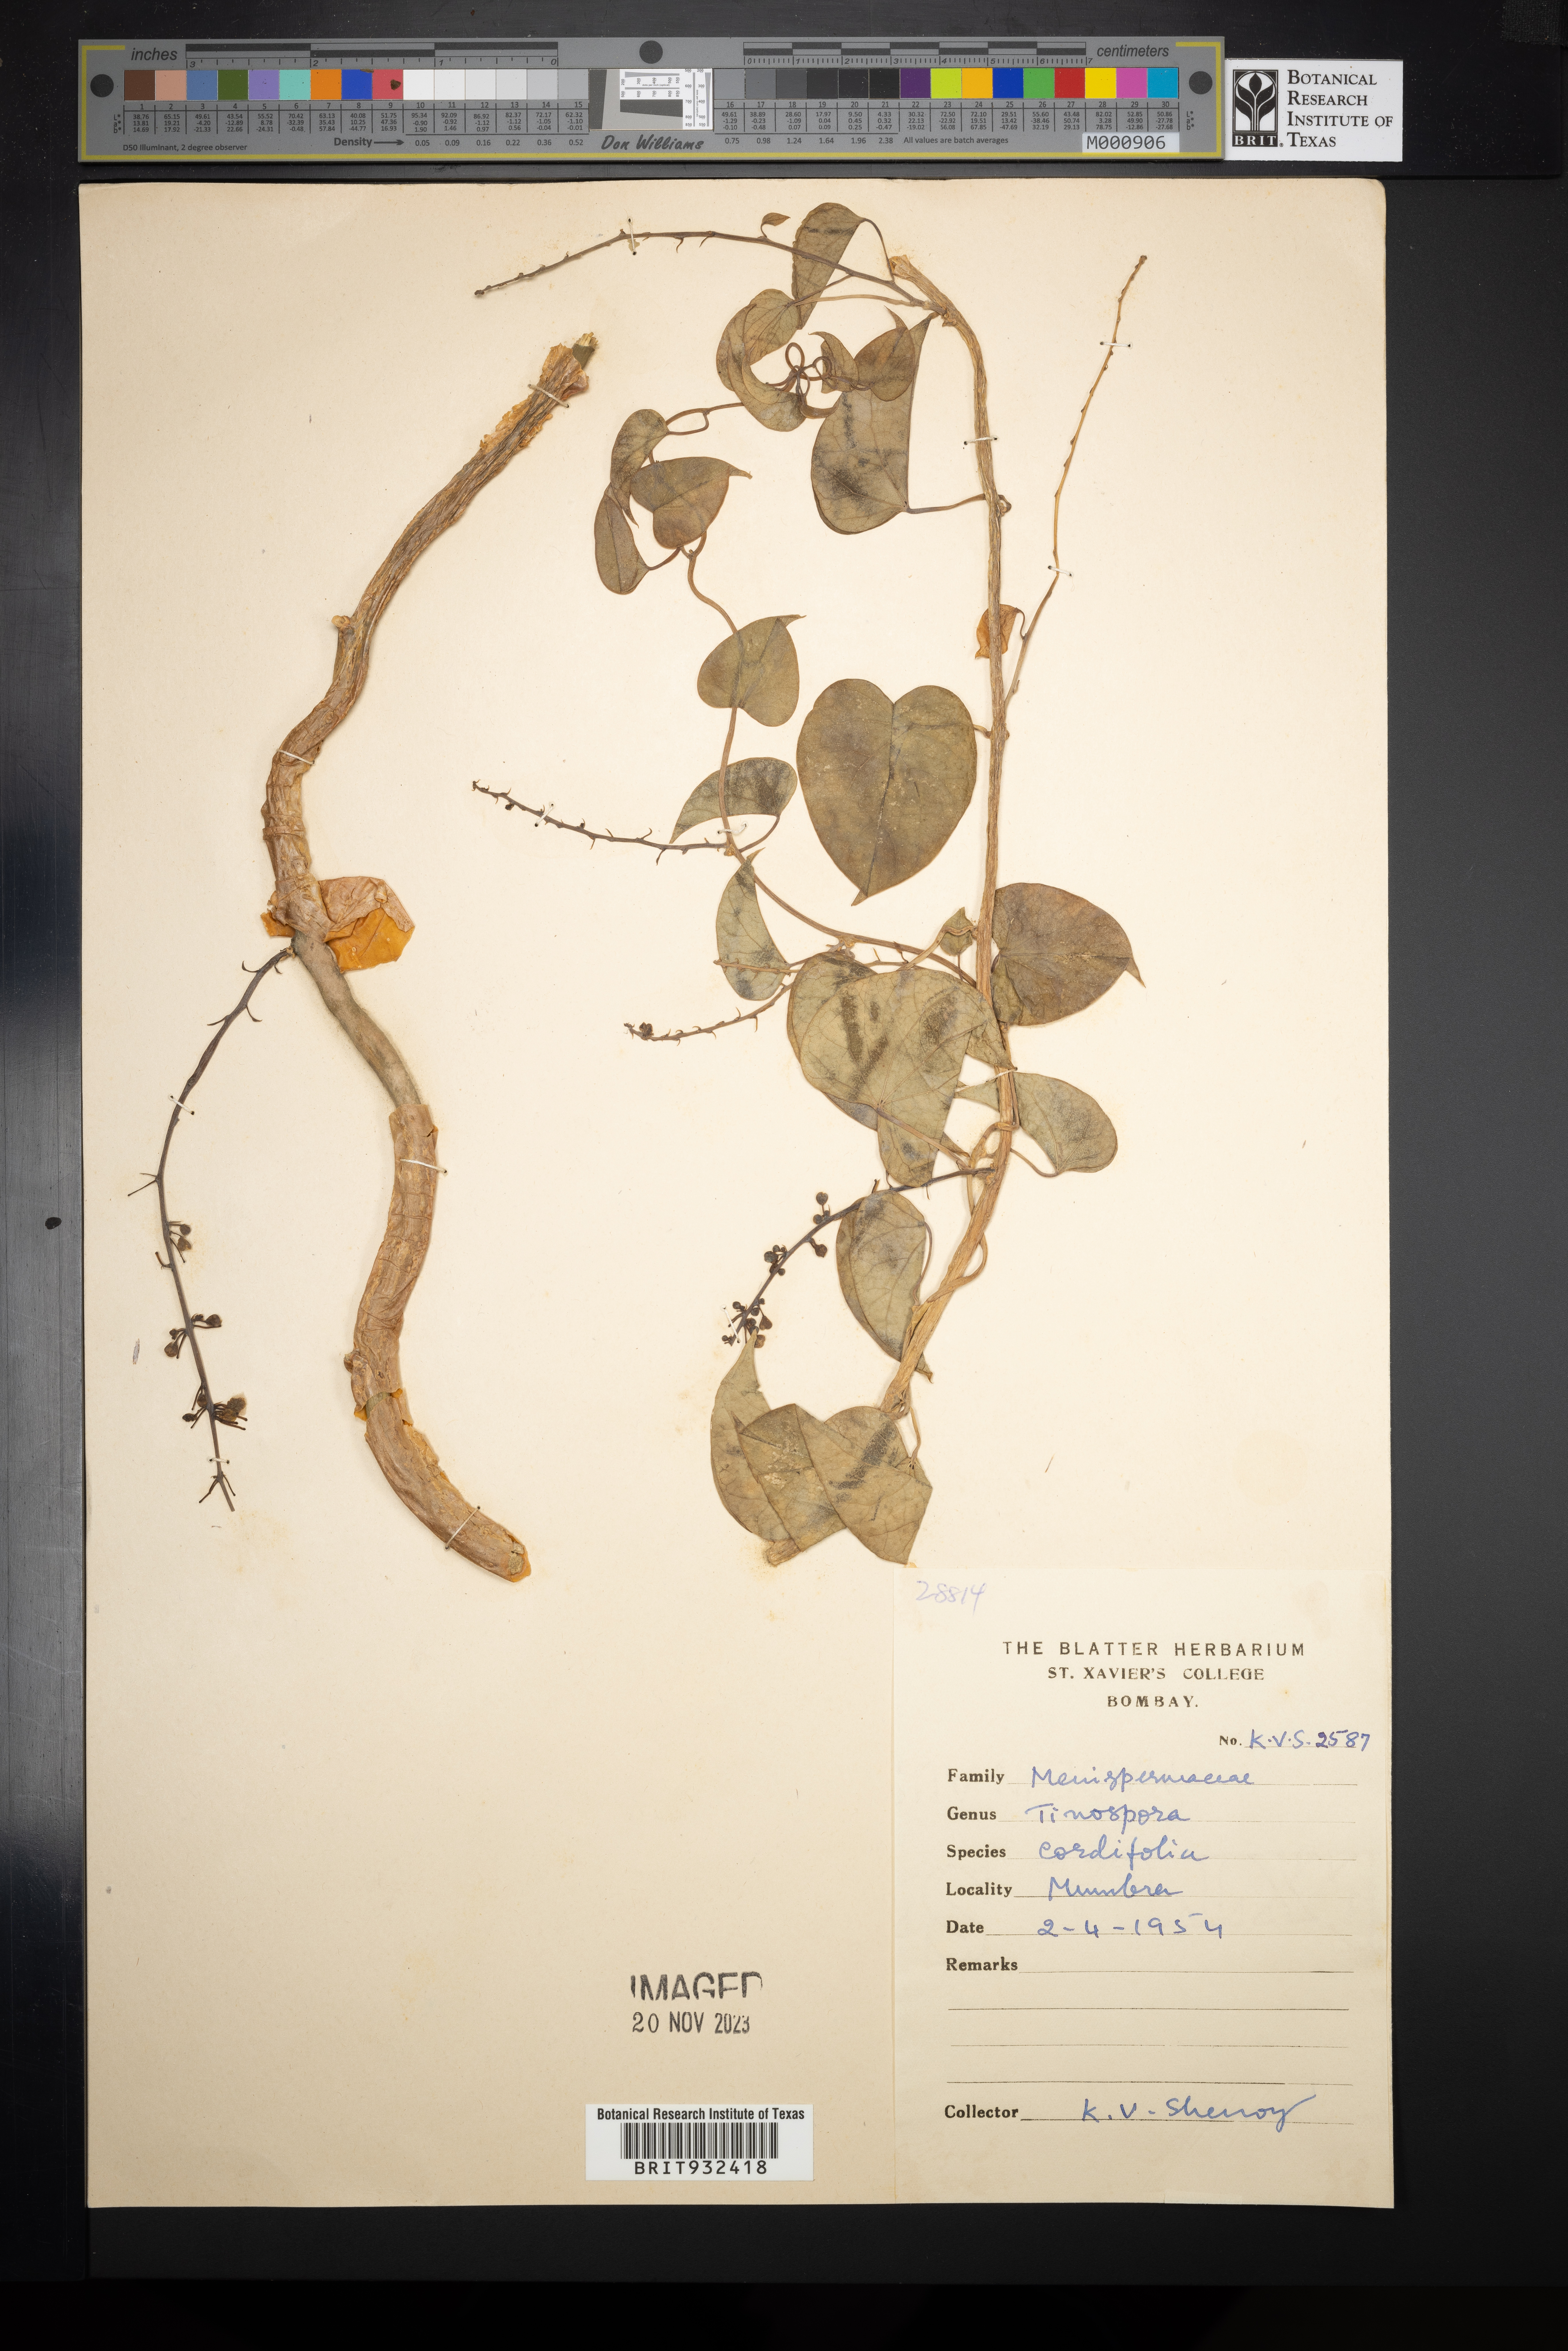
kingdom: Plantae
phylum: Tracheophyta
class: Magnoliopsida
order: Ranunculales
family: Menispermaceae
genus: Tinospora
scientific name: Tinospora
